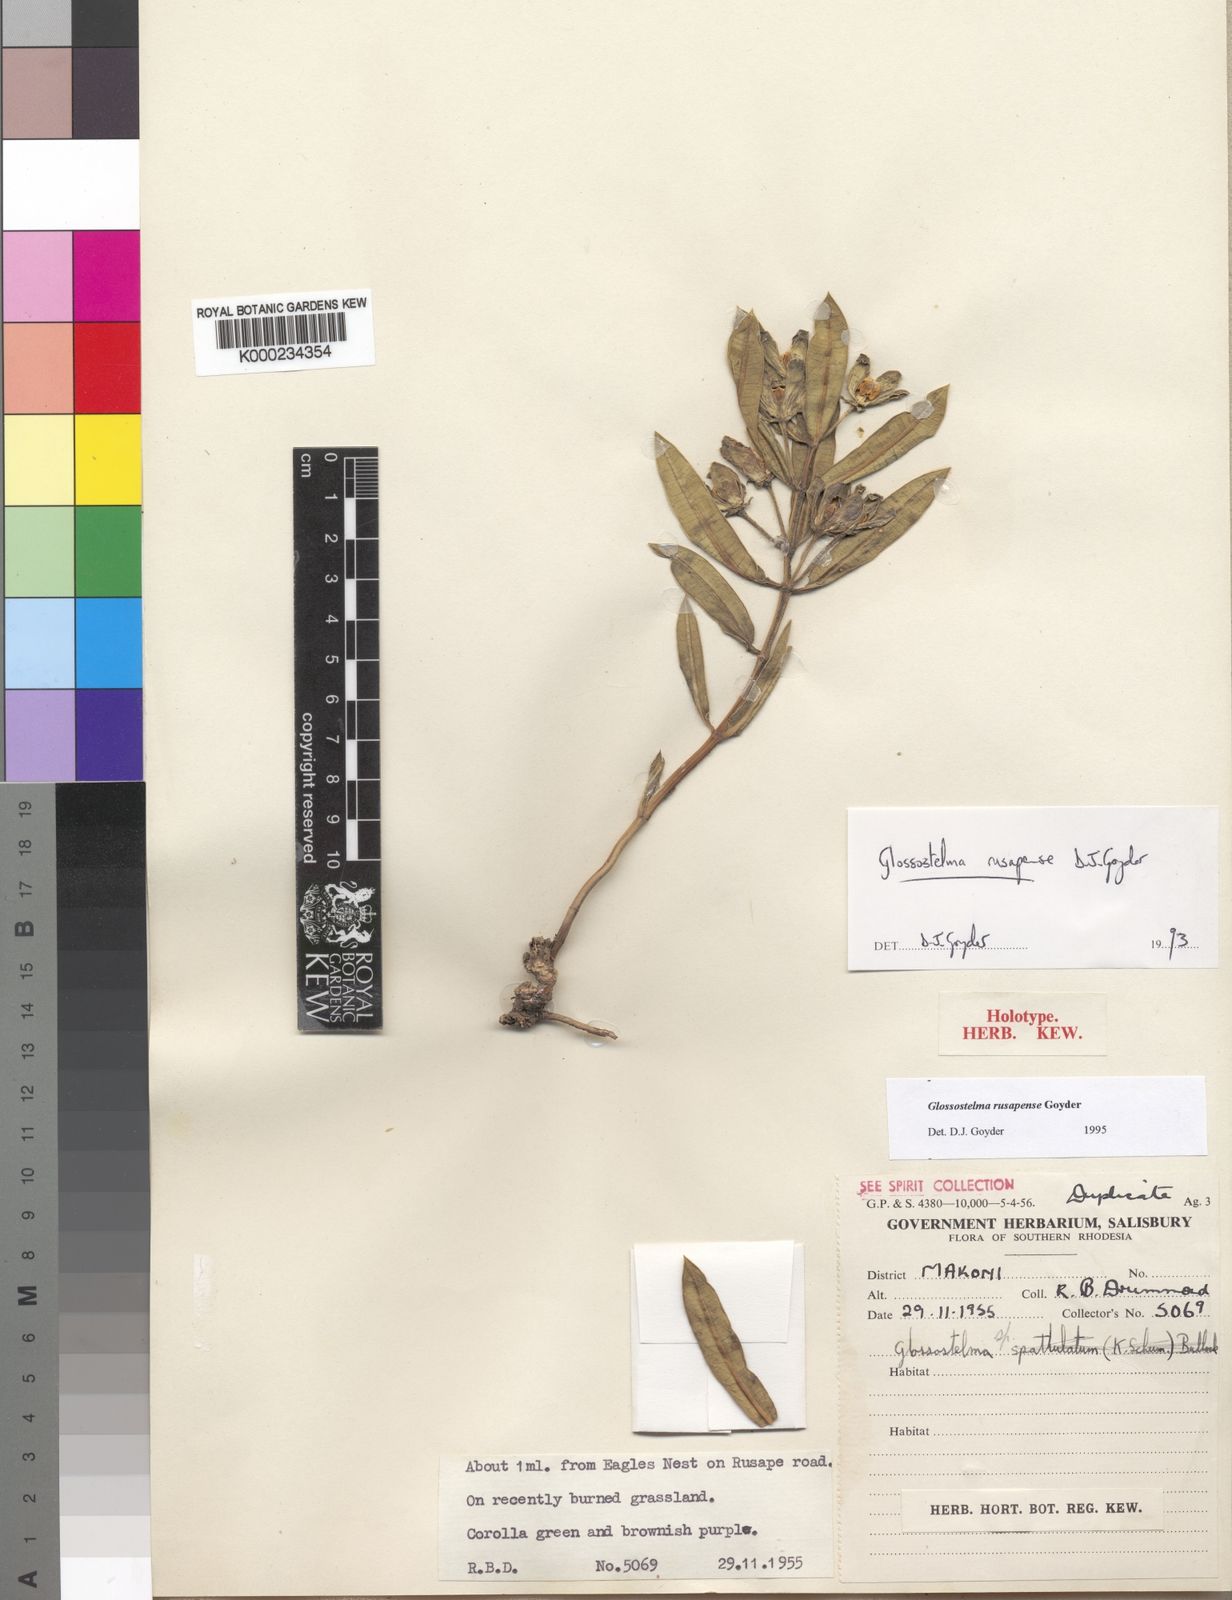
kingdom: Plantae
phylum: Tracheophyta
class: Magnoliopsida
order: Gentianales
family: Apocynaceae
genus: Glossostelma
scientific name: Glossostelma rusapense
